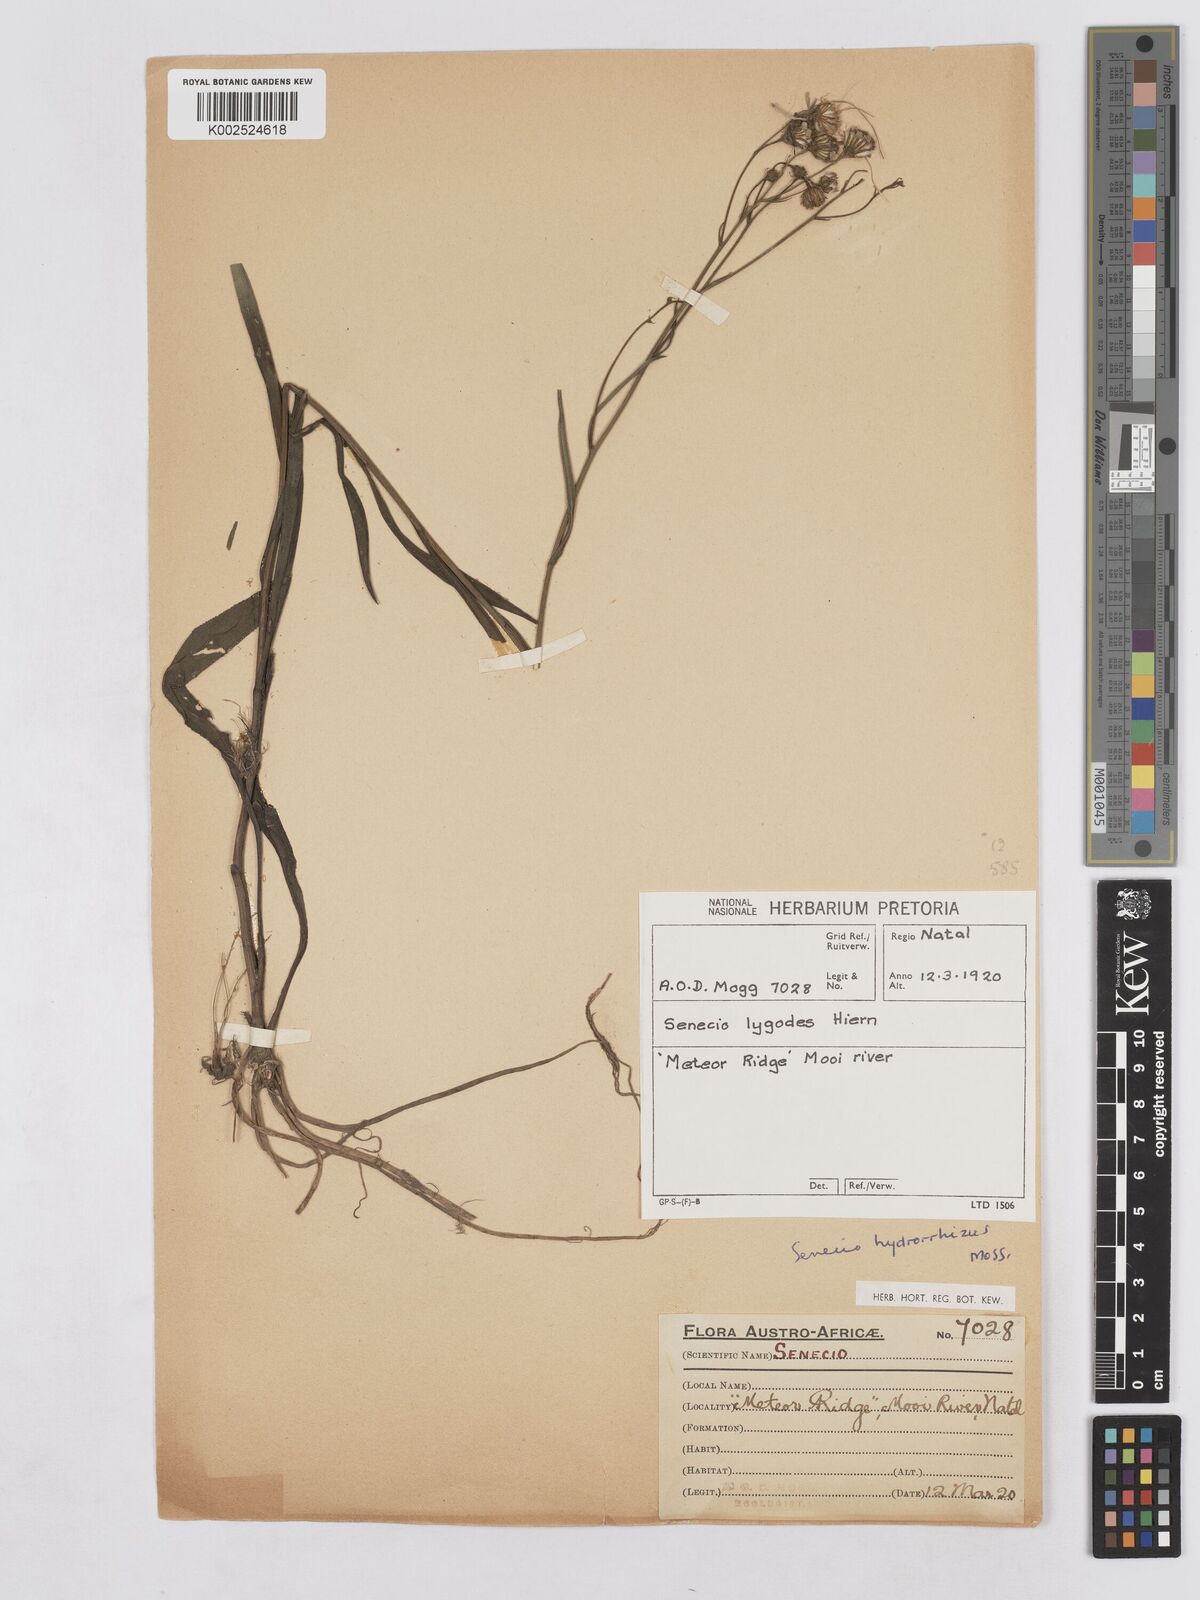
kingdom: Plantae
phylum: Tracheophyta
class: Magnoliopsida
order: Asterales
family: Asteraceae
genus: Senecio
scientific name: Senecio inornatus
